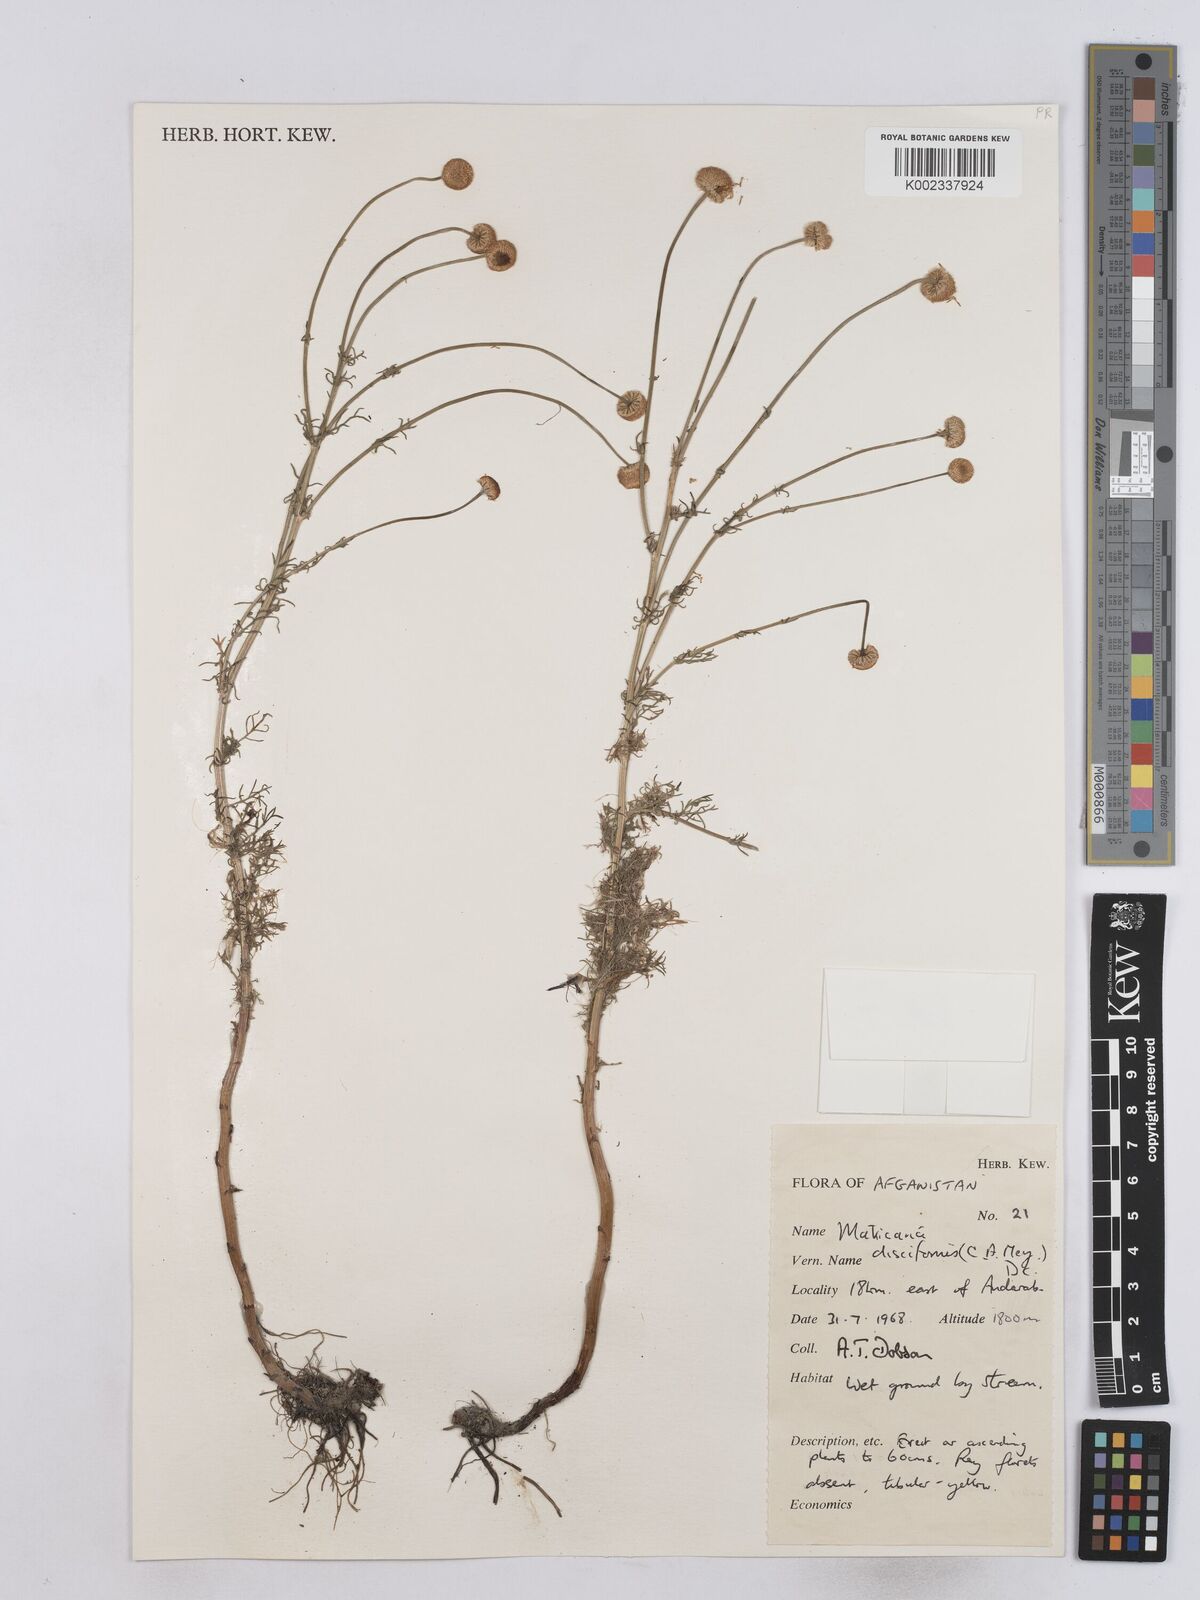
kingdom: Plantae
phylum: Tracheophyta
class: Magnoliopsida
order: Asterales
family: Asteraceae
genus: Matricaria
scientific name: Matricaria aurea
